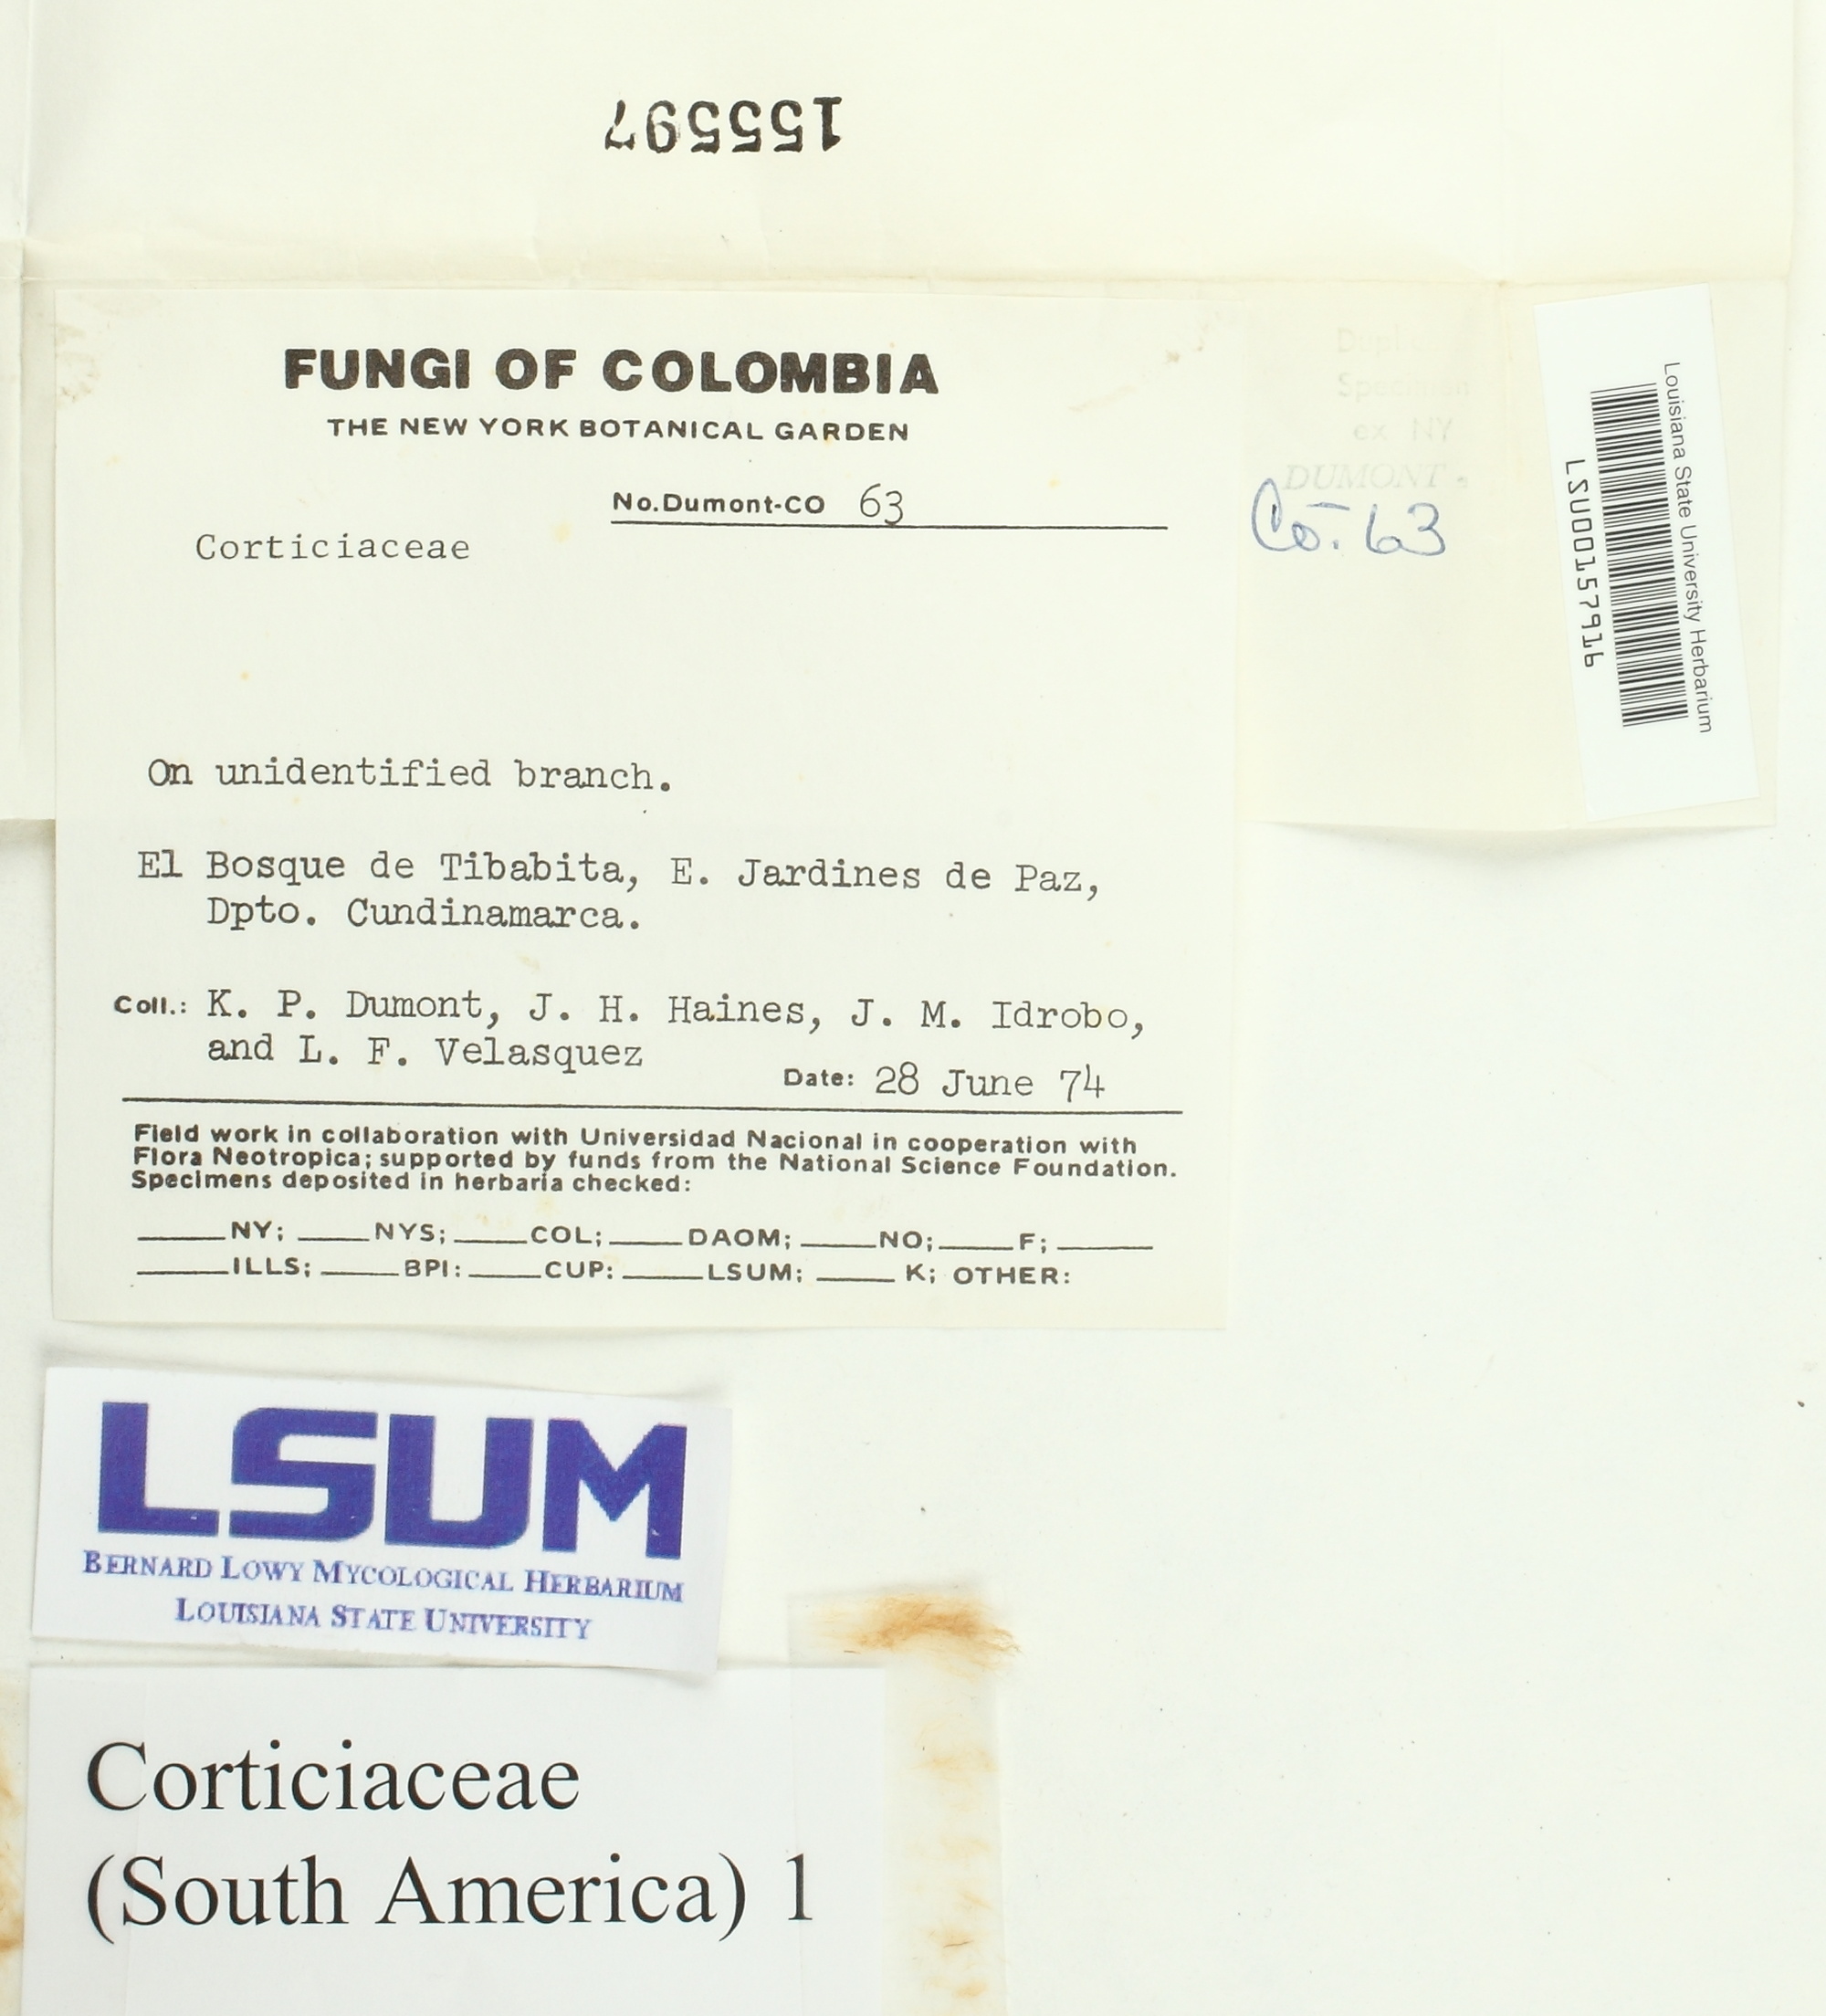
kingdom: Fungi
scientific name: Fungi
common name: Fungi
